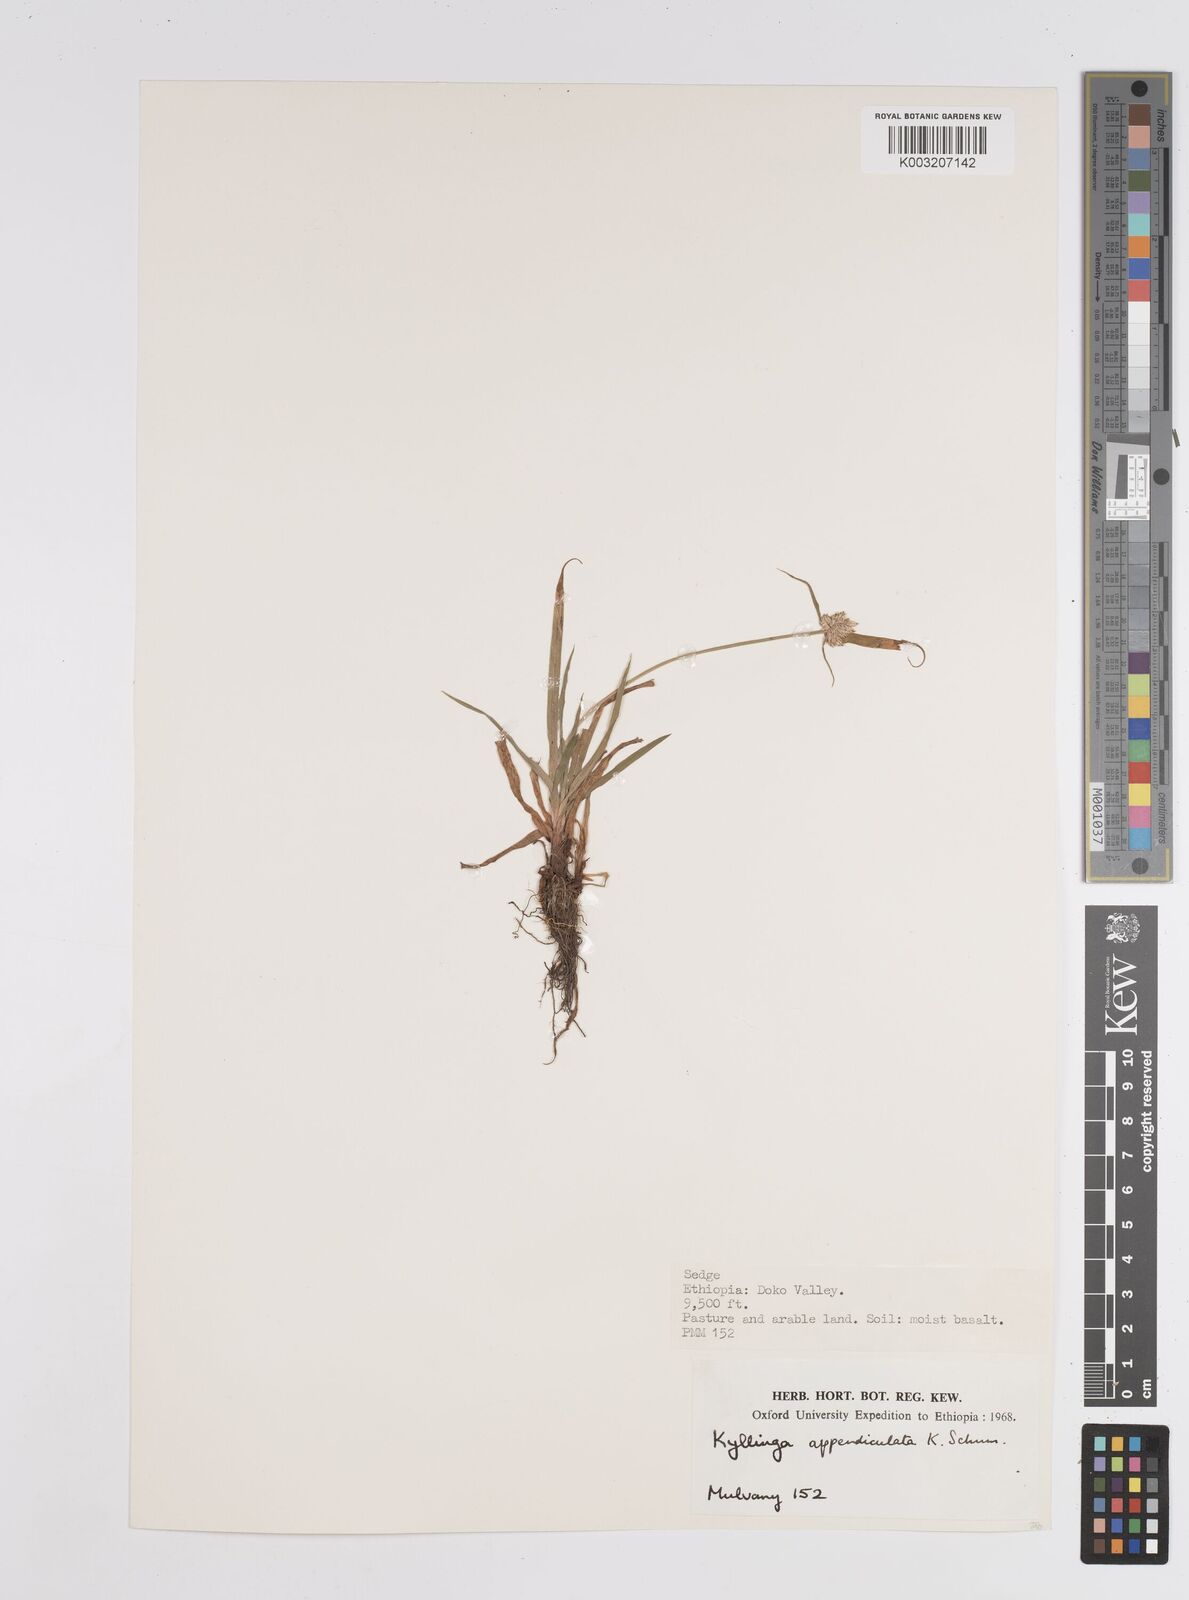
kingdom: Plantae
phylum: Tracheophyta
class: Liliopsida
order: Poales
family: Cyperaceae
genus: Cyperus
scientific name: Cyperus
